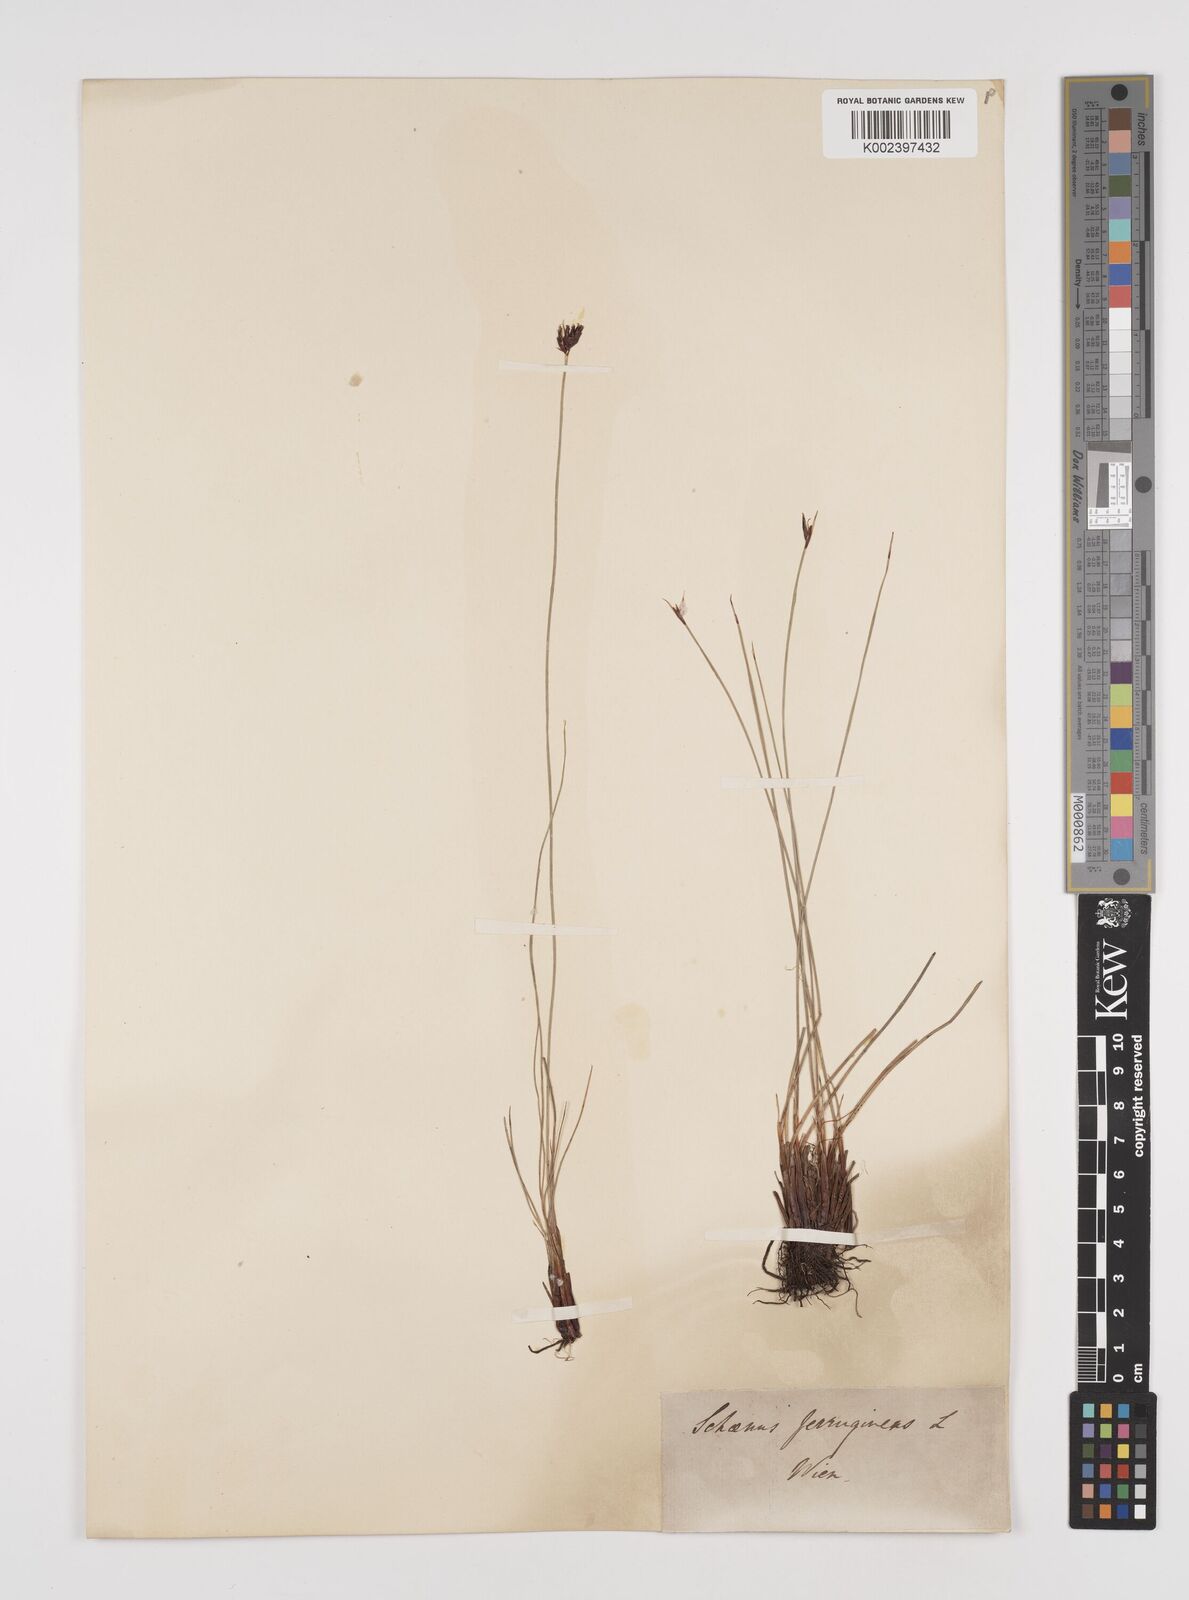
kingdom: Plantae
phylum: Tracheophyta
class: Liliopsida
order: Poales
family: Cyperaceae
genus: Schoenus
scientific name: Schoenus ferrugineus
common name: Brown bog-rush
